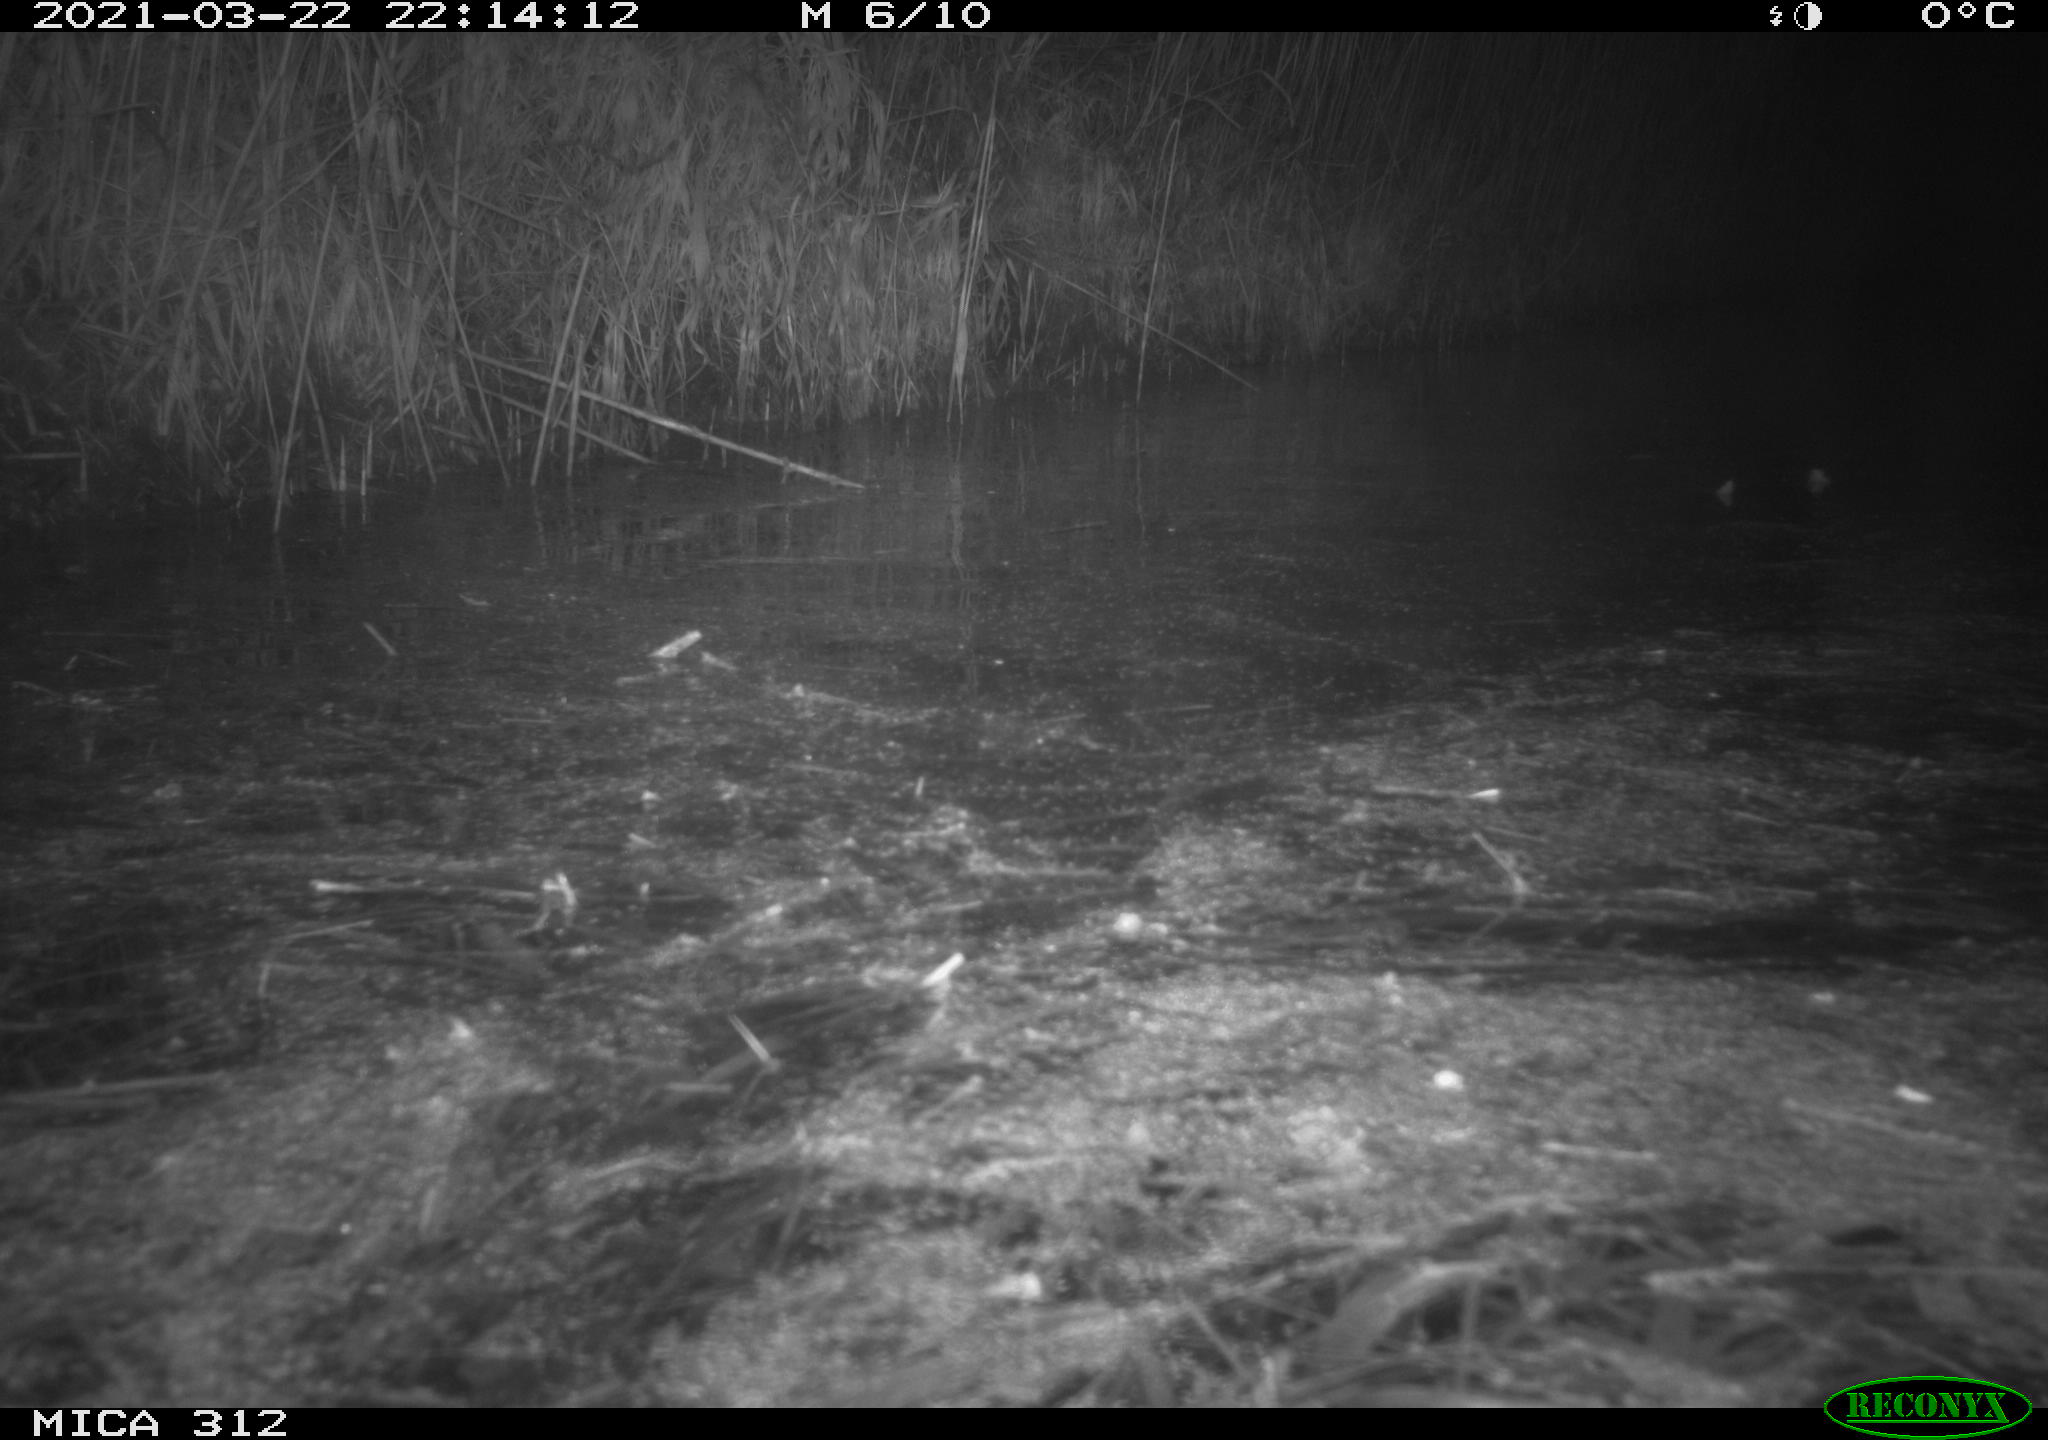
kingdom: Animalia
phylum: Chordata
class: Aves
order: Anseriformes
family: Anatidae
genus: Anas
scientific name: Anas platyrhynchos
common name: Mallard
